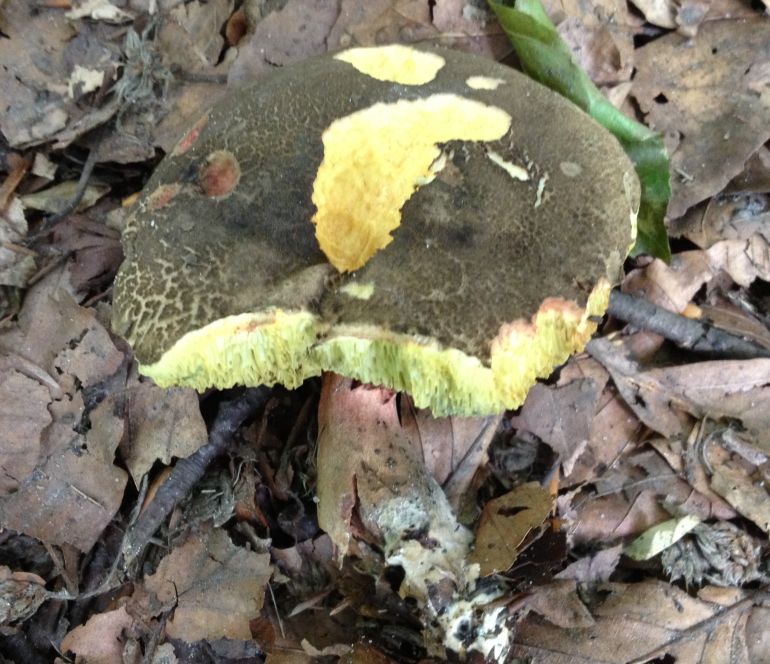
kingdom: Fungi
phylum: Basidiomycota
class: Agaricomycetes
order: Boletales
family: Boletaceae
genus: Xerocomellus
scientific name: Xerocomellus cisalpinus
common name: finsprukken rørhat
